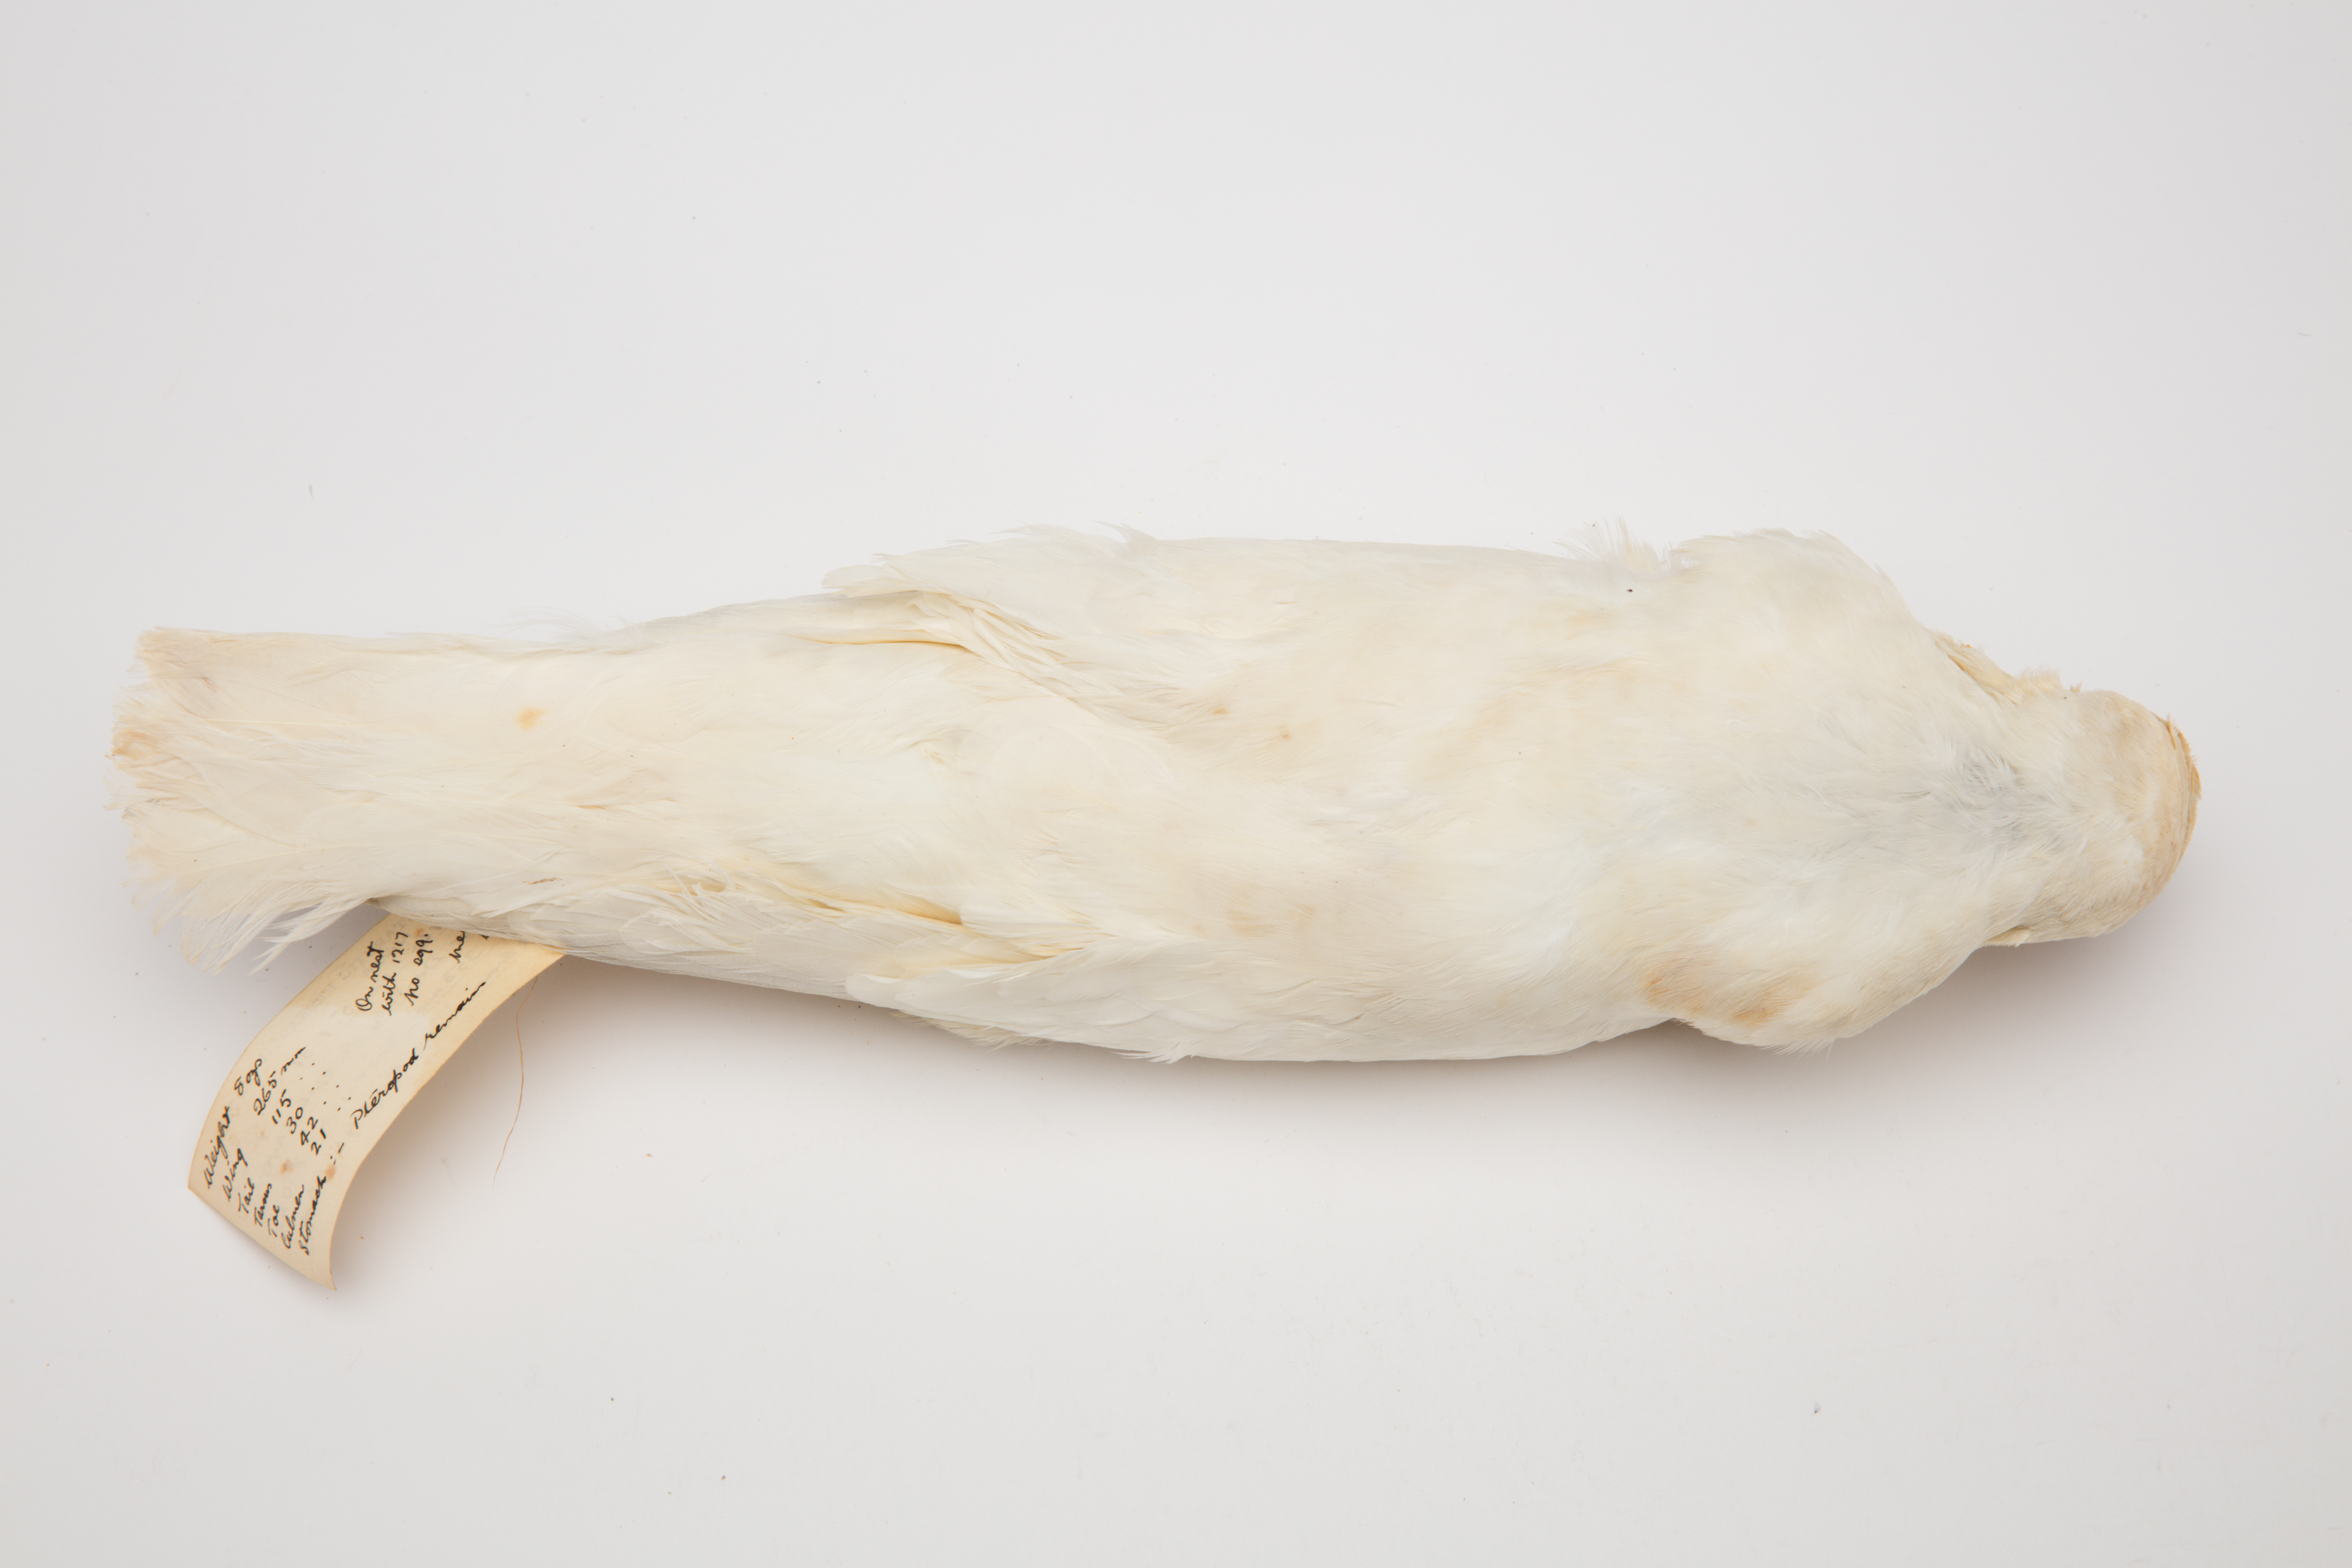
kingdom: Animalia
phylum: Chordata
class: Aves
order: Procellariiformes
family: Procellariidae
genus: Pagodroma
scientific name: Pagodroma nivea
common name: Snow petrel
